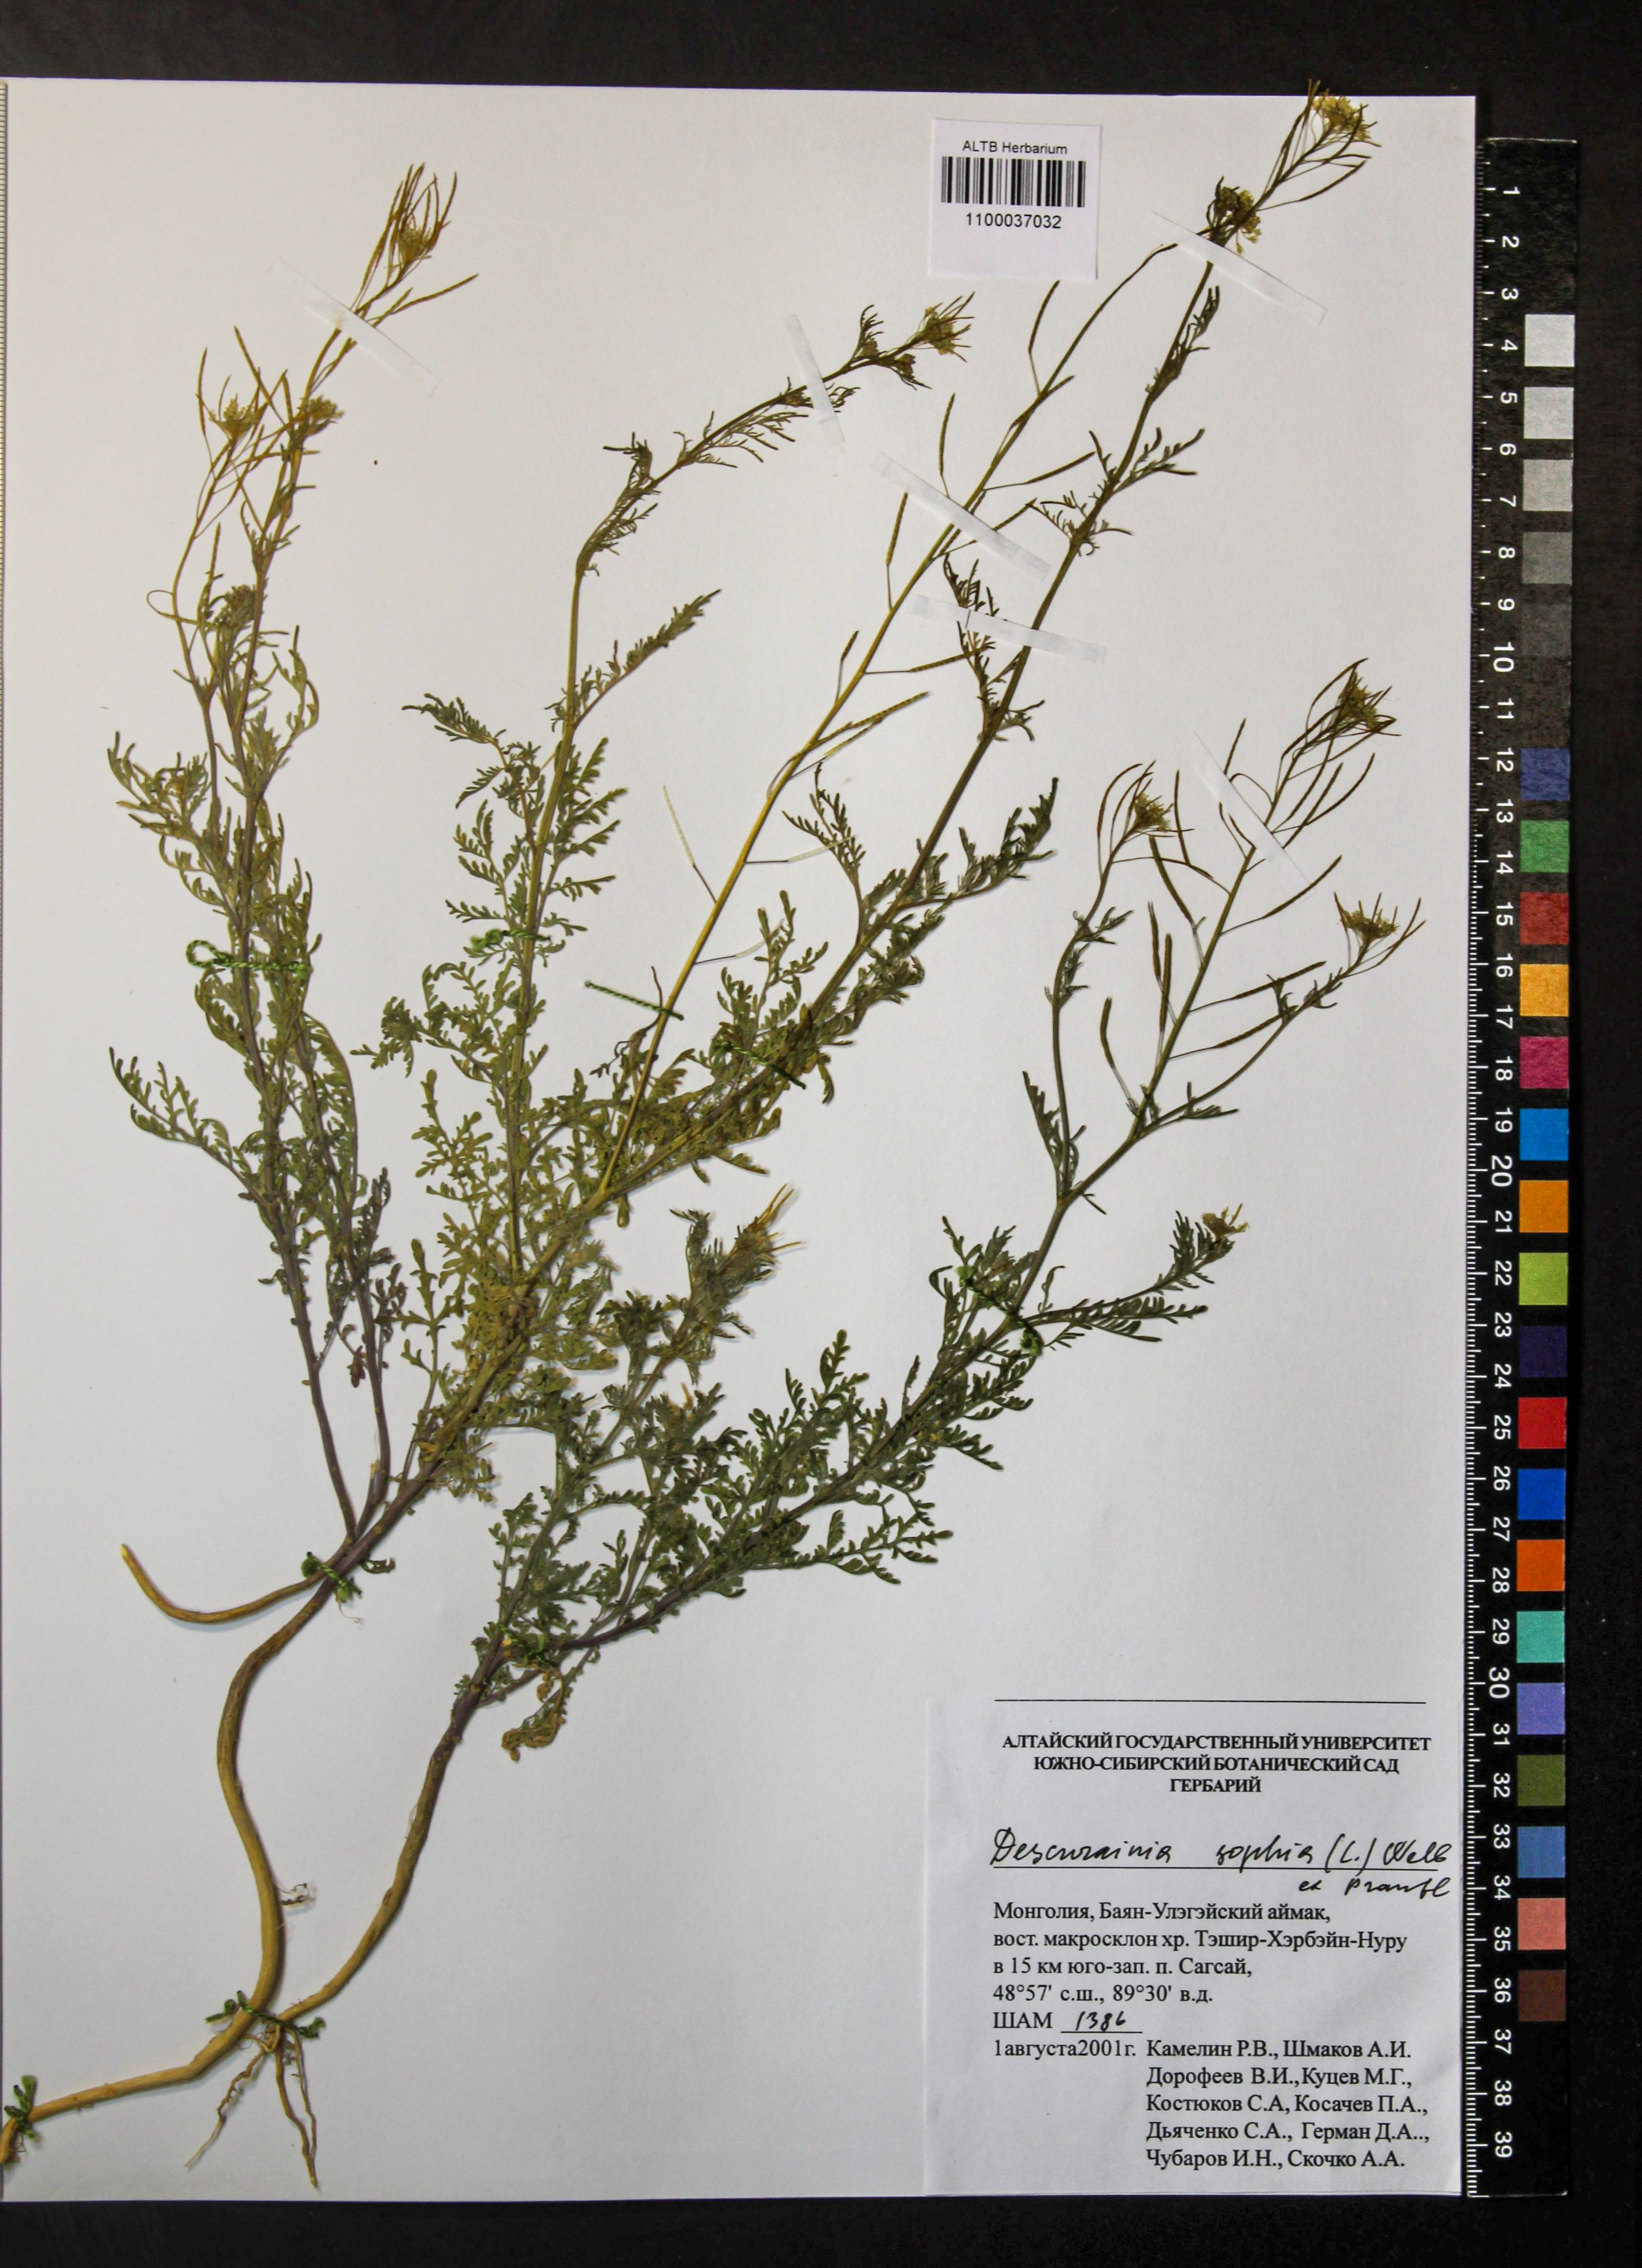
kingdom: Plantae
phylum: Tracheophyta
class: Magnoliopsida
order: Brassicales
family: Brassicaceae
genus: Descurainia
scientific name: Descurainia sophia
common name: Flixweed
